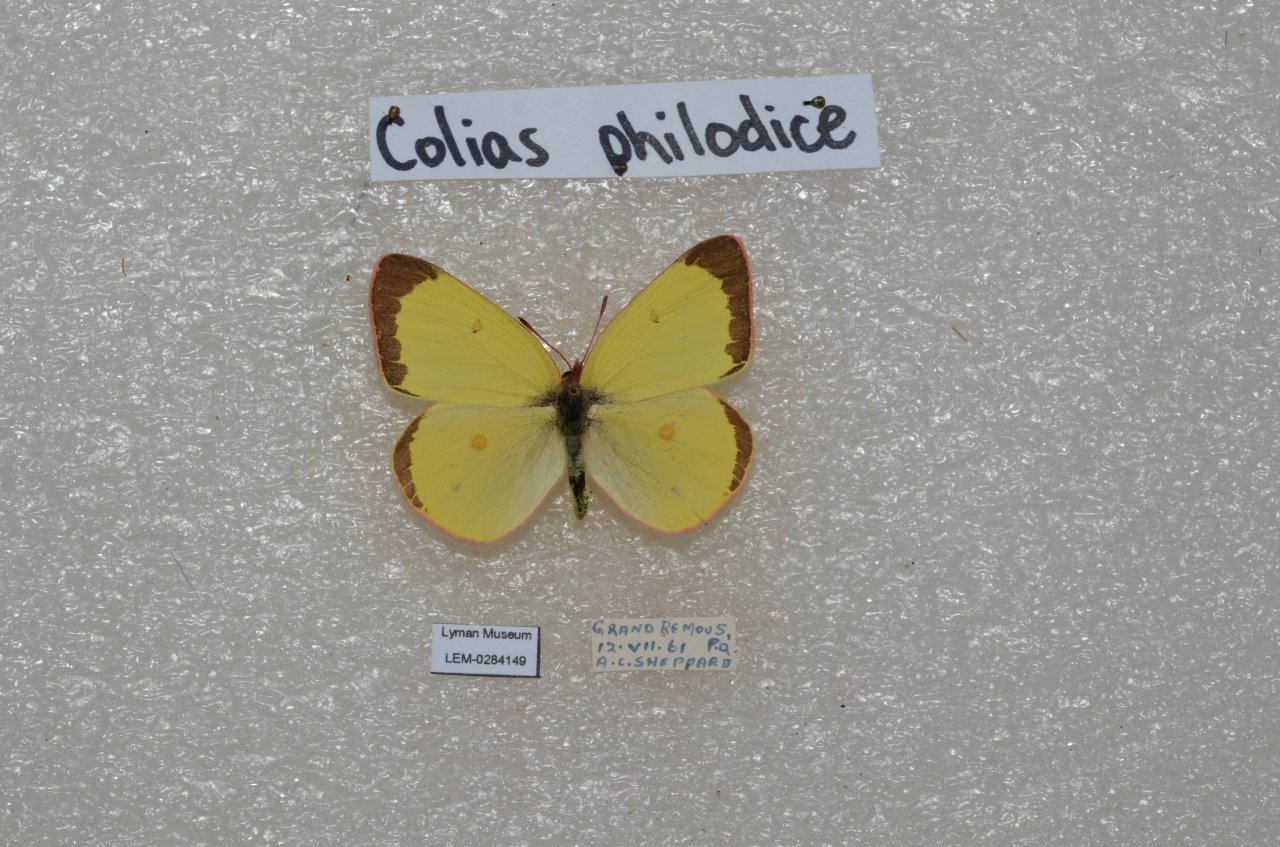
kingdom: Animalia
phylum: Arthropoda
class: Insecta
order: Lepidoptera
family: Pieridae
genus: Colias
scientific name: Colias interior
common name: Pink-edged Sulphur
